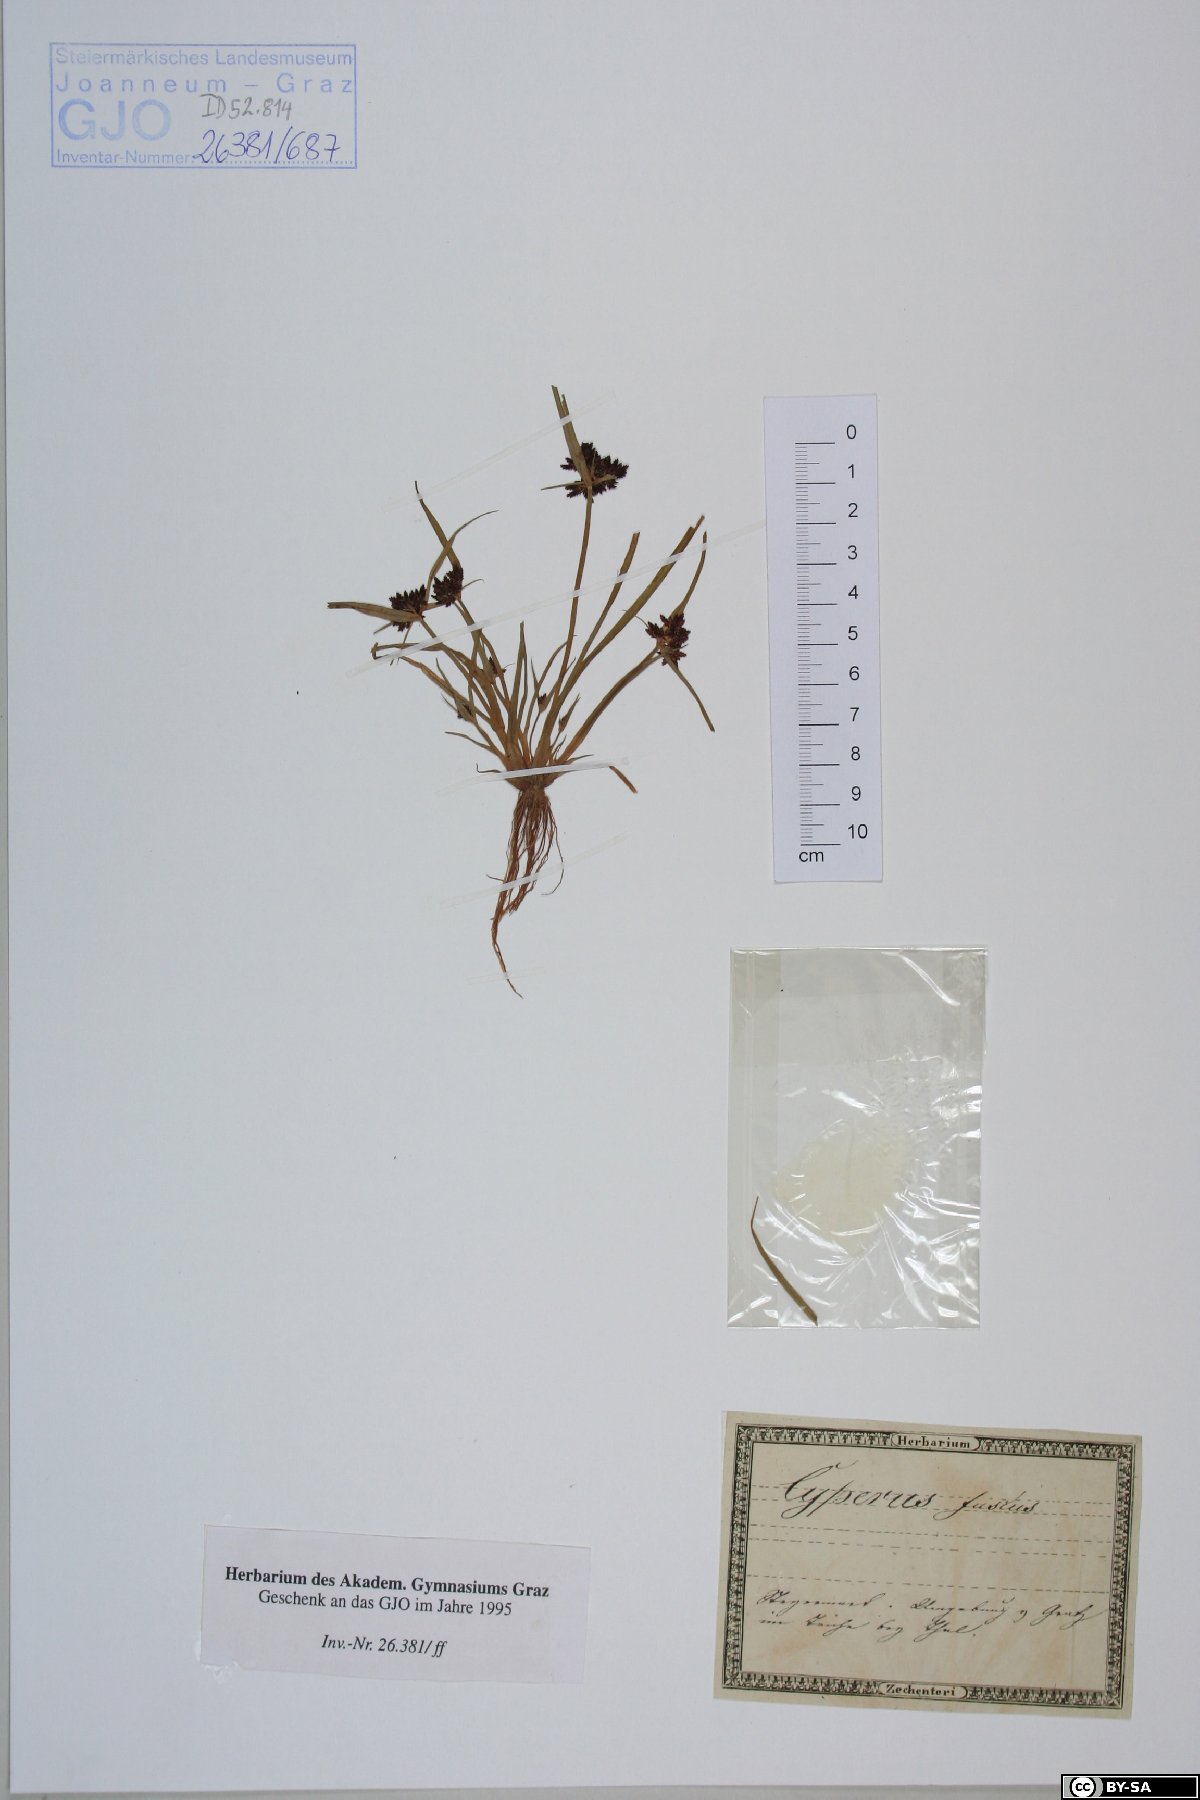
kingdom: Plantae
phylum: Tracheophyta
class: Liliopsida
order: Poales
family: Cyperaceae
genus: Cyperus
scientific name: Cyperus fuscus
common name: Brown galingale
